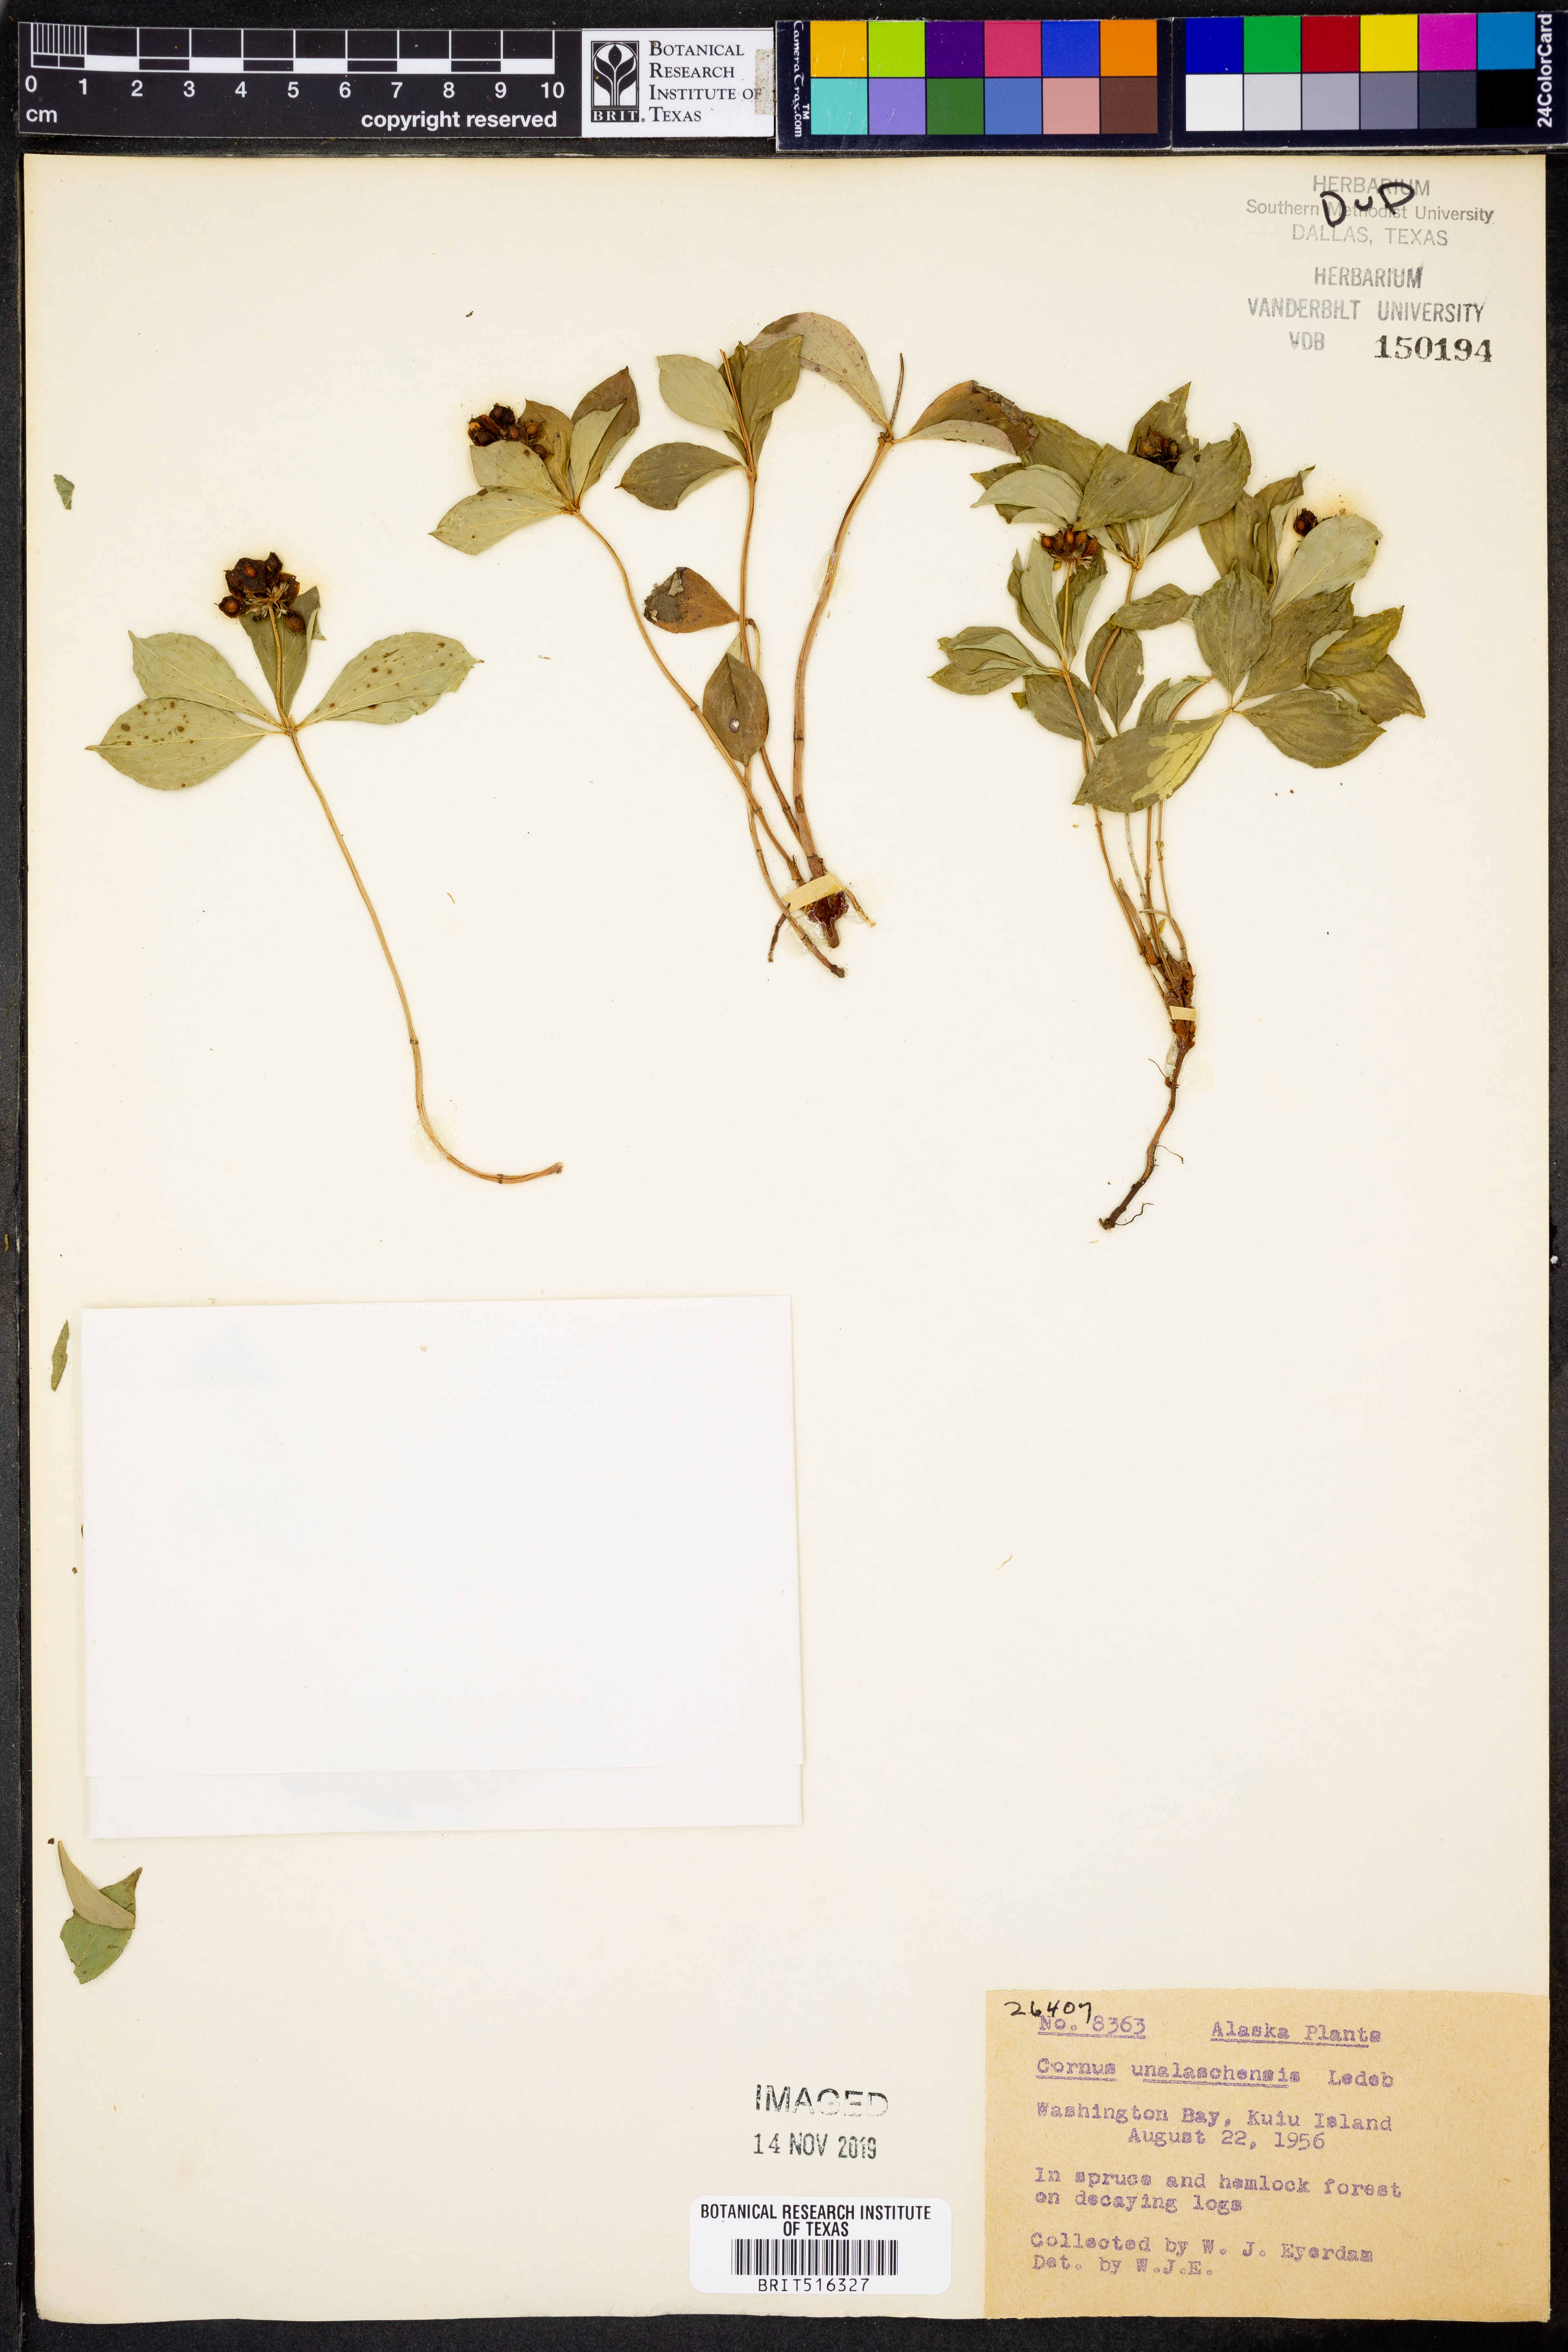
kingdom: Plantae
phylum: Tracheophyta
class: Magnoliopsida
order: Cornales
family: Cornaceae
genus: Cornus
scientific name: Cornus unalaschkensis
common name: Alaska bunchberry
